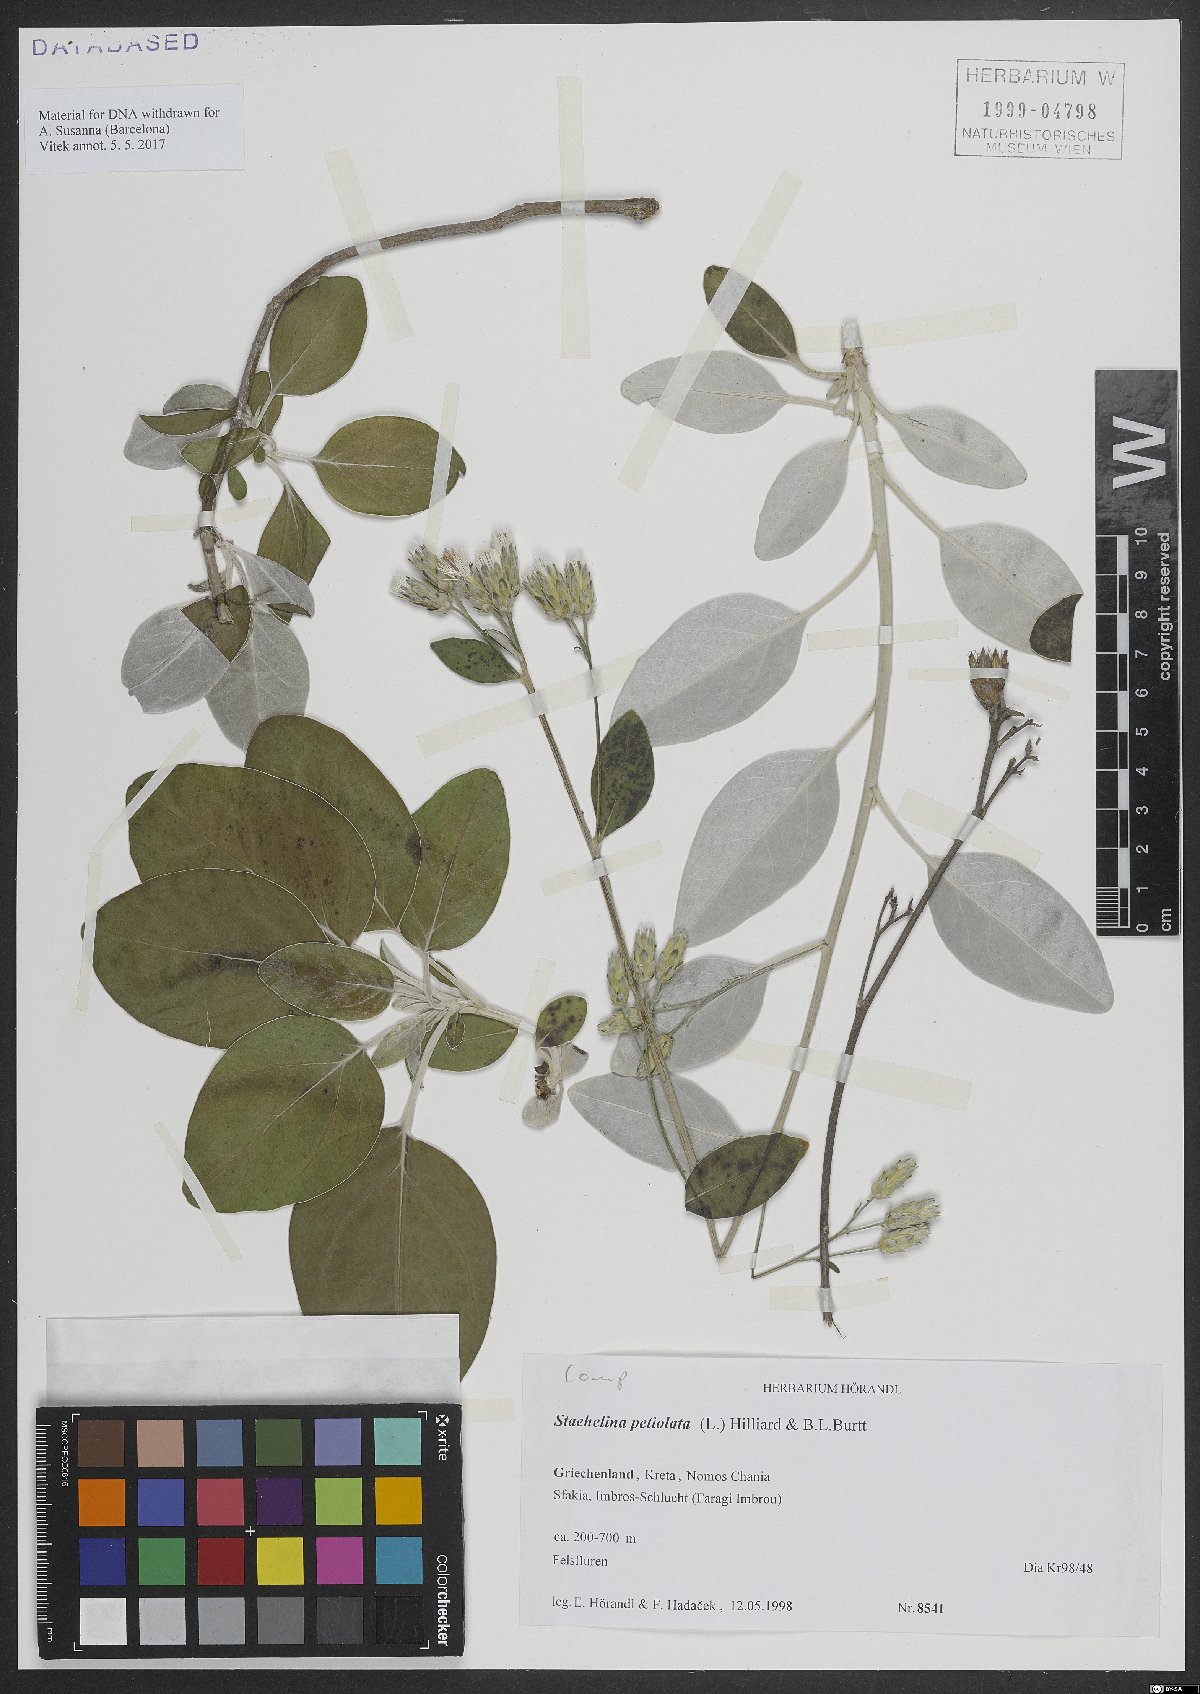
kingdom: Plantae
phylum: Tracheophyta
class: Magnoliopsida
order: Asterales
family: Asteraceae
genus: Staehelina
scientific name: Staehelina petiolata
